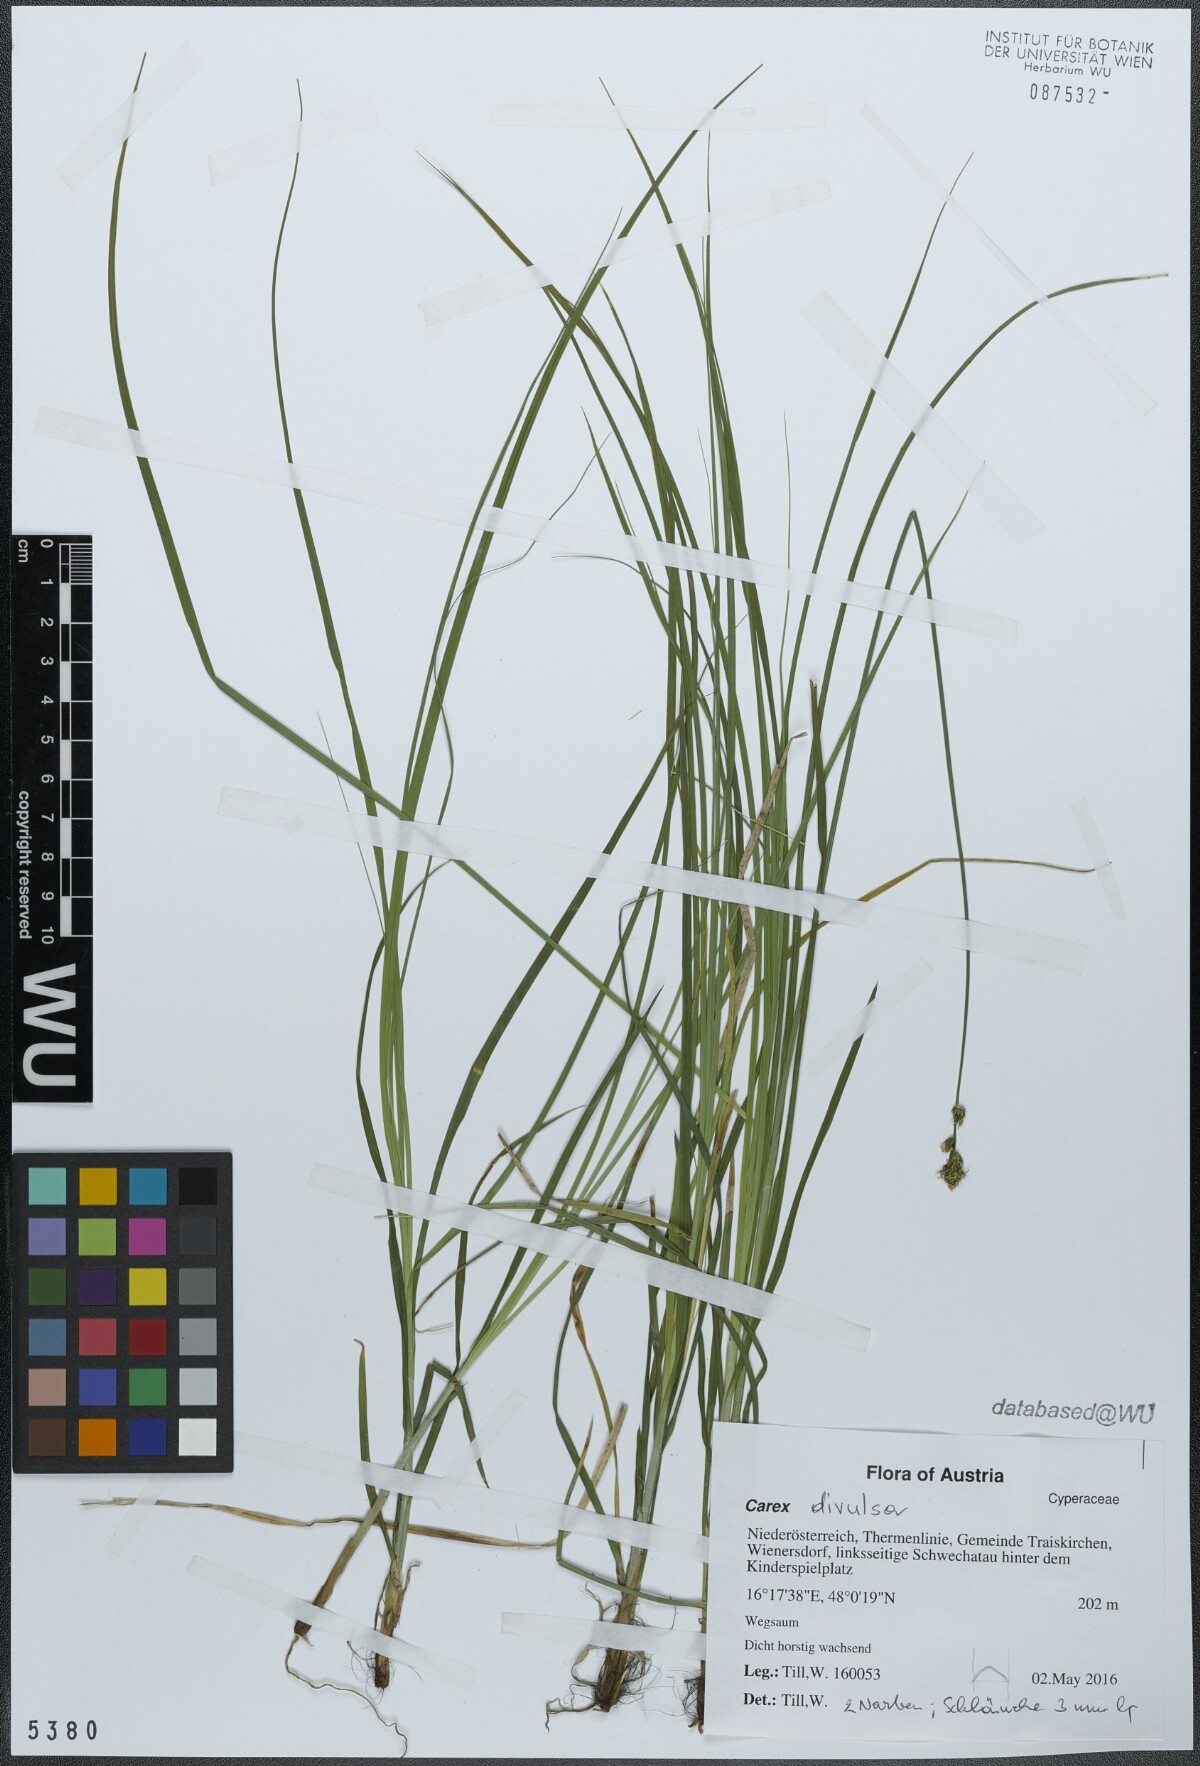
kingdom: Plantae
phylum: Tracheophyta
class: Liliopsida
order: Poales
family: Cyperaceae
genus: Carex
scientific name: Carex divulsa
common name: Grassland sedge
